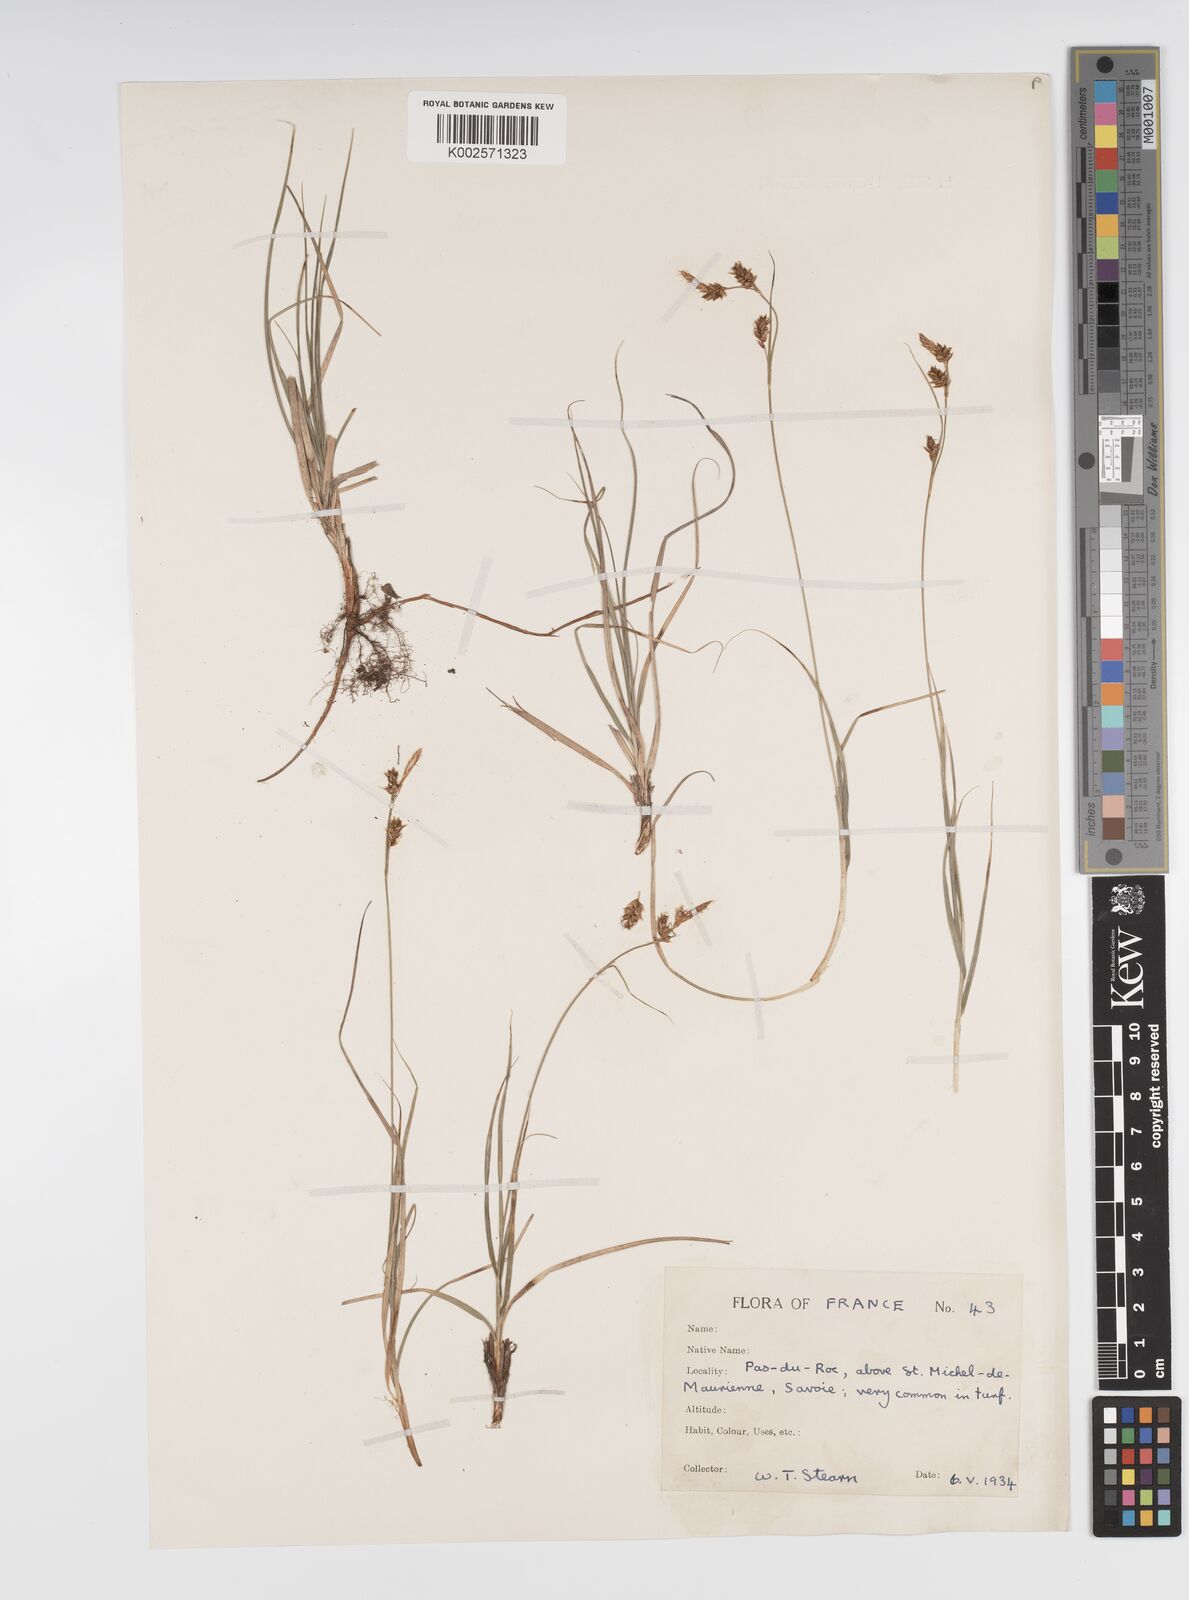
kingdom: Plantae
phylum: Tracheophyta
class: Liliopsida
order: Poales
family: Cyperaceae
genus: Carex
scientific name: Carex supina
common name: Lying-back sedge
